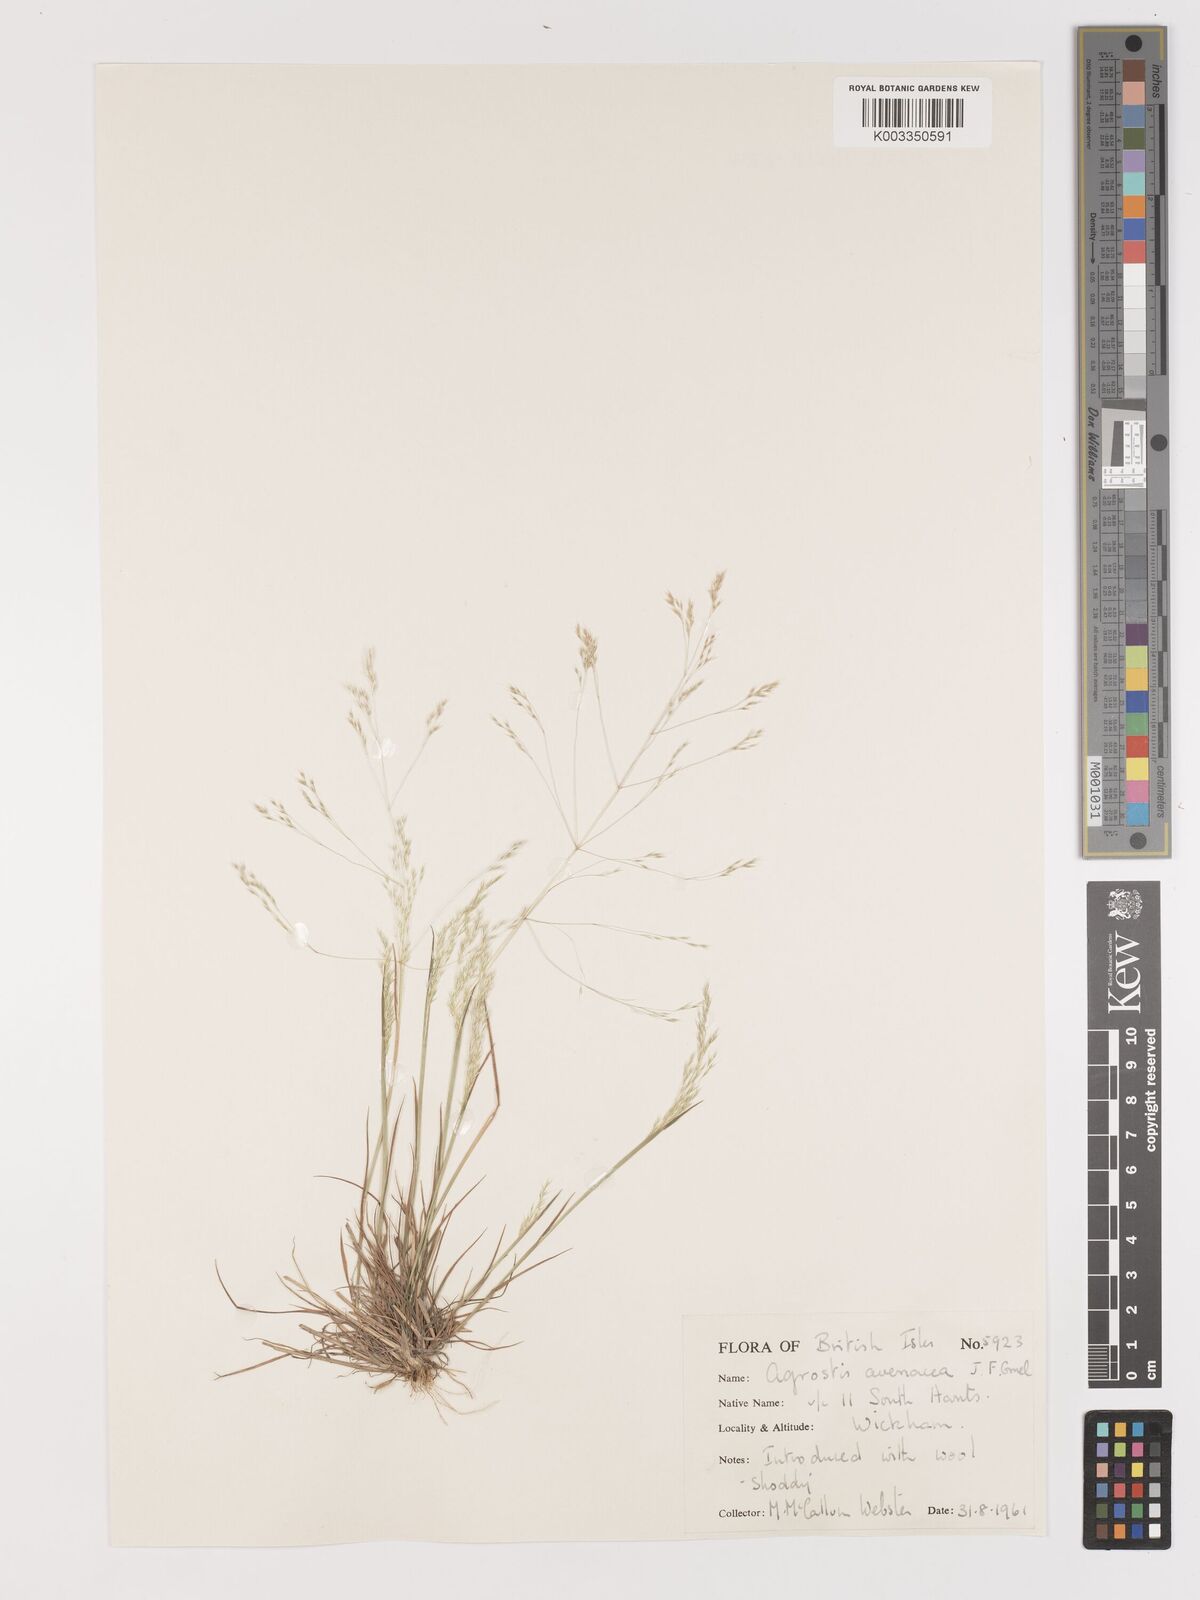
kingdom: Plantae
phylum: Tracheophyta
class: Liliopsida
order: Poales
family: Poaceae
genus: Lachnagrostis
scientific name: Lachnagrostis filiformis
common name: Bentgrass
